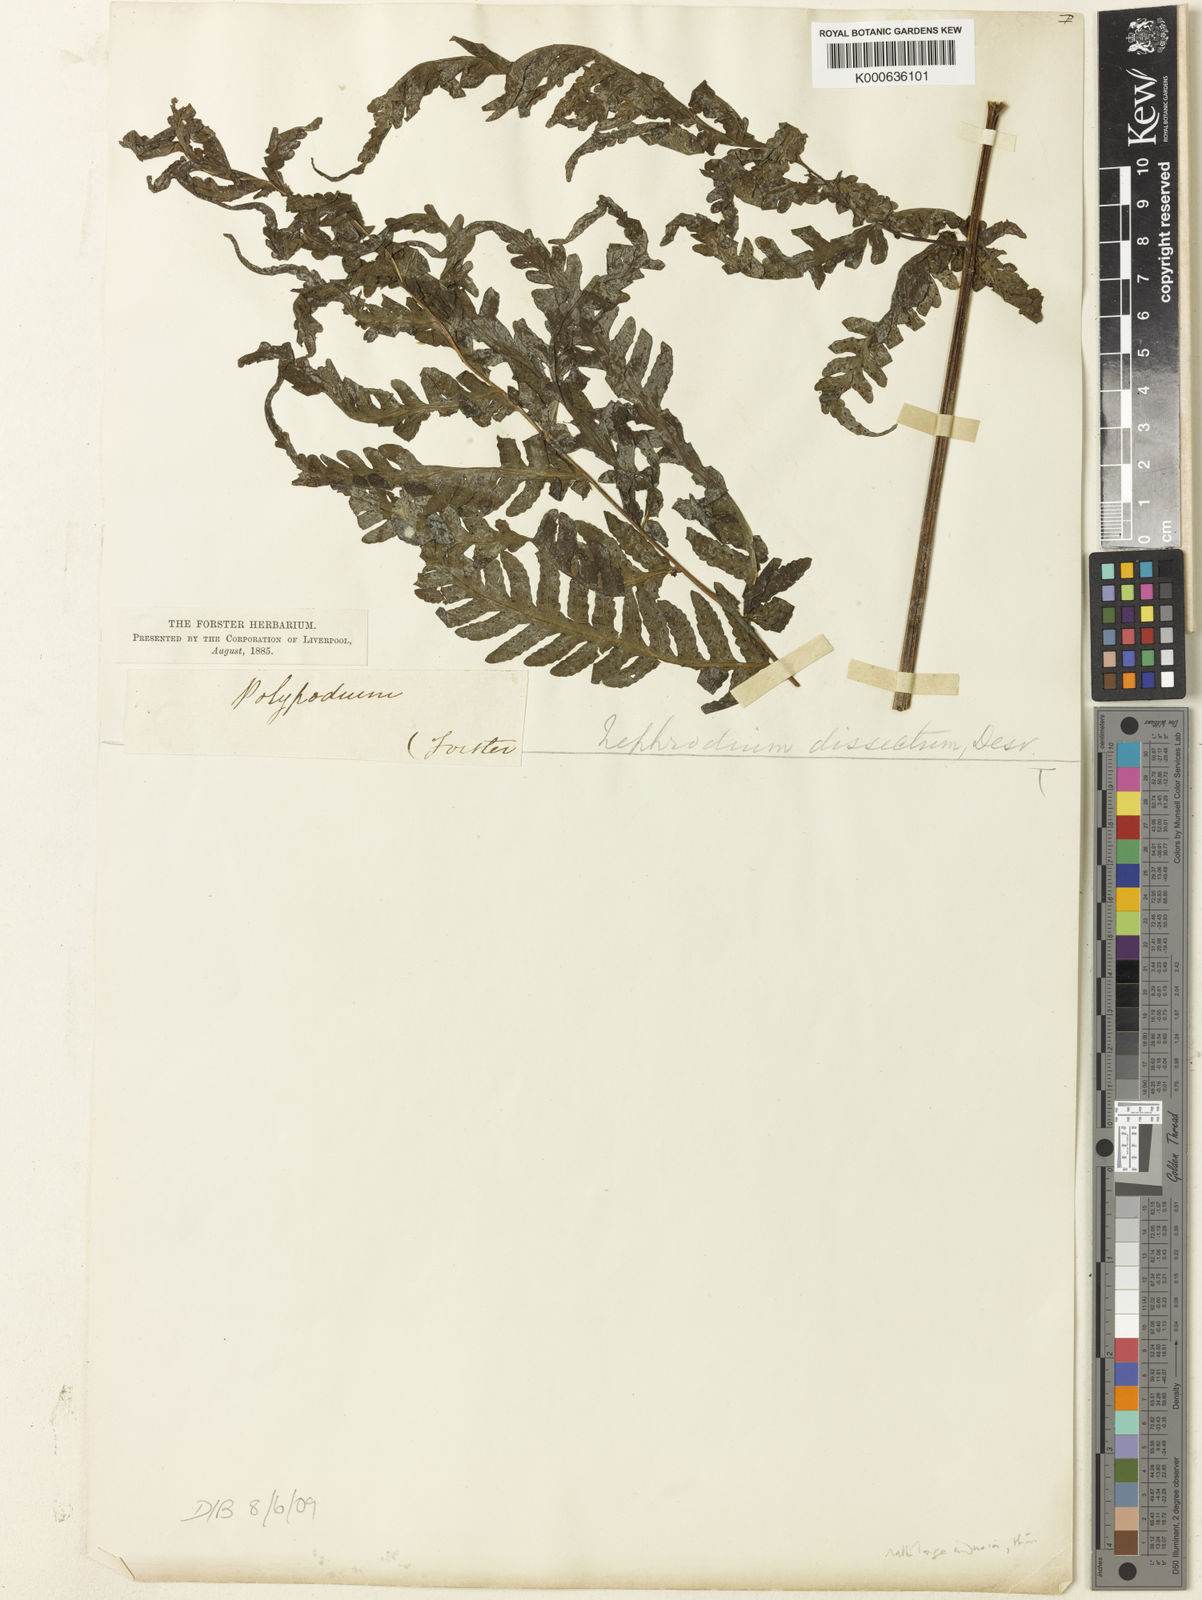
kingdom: Plantae
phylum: Tracheophyta
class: Polypodiopsida
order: Polypodiales
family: Tectariaceae
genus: Tectaria
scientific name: Tectaria dissecta
